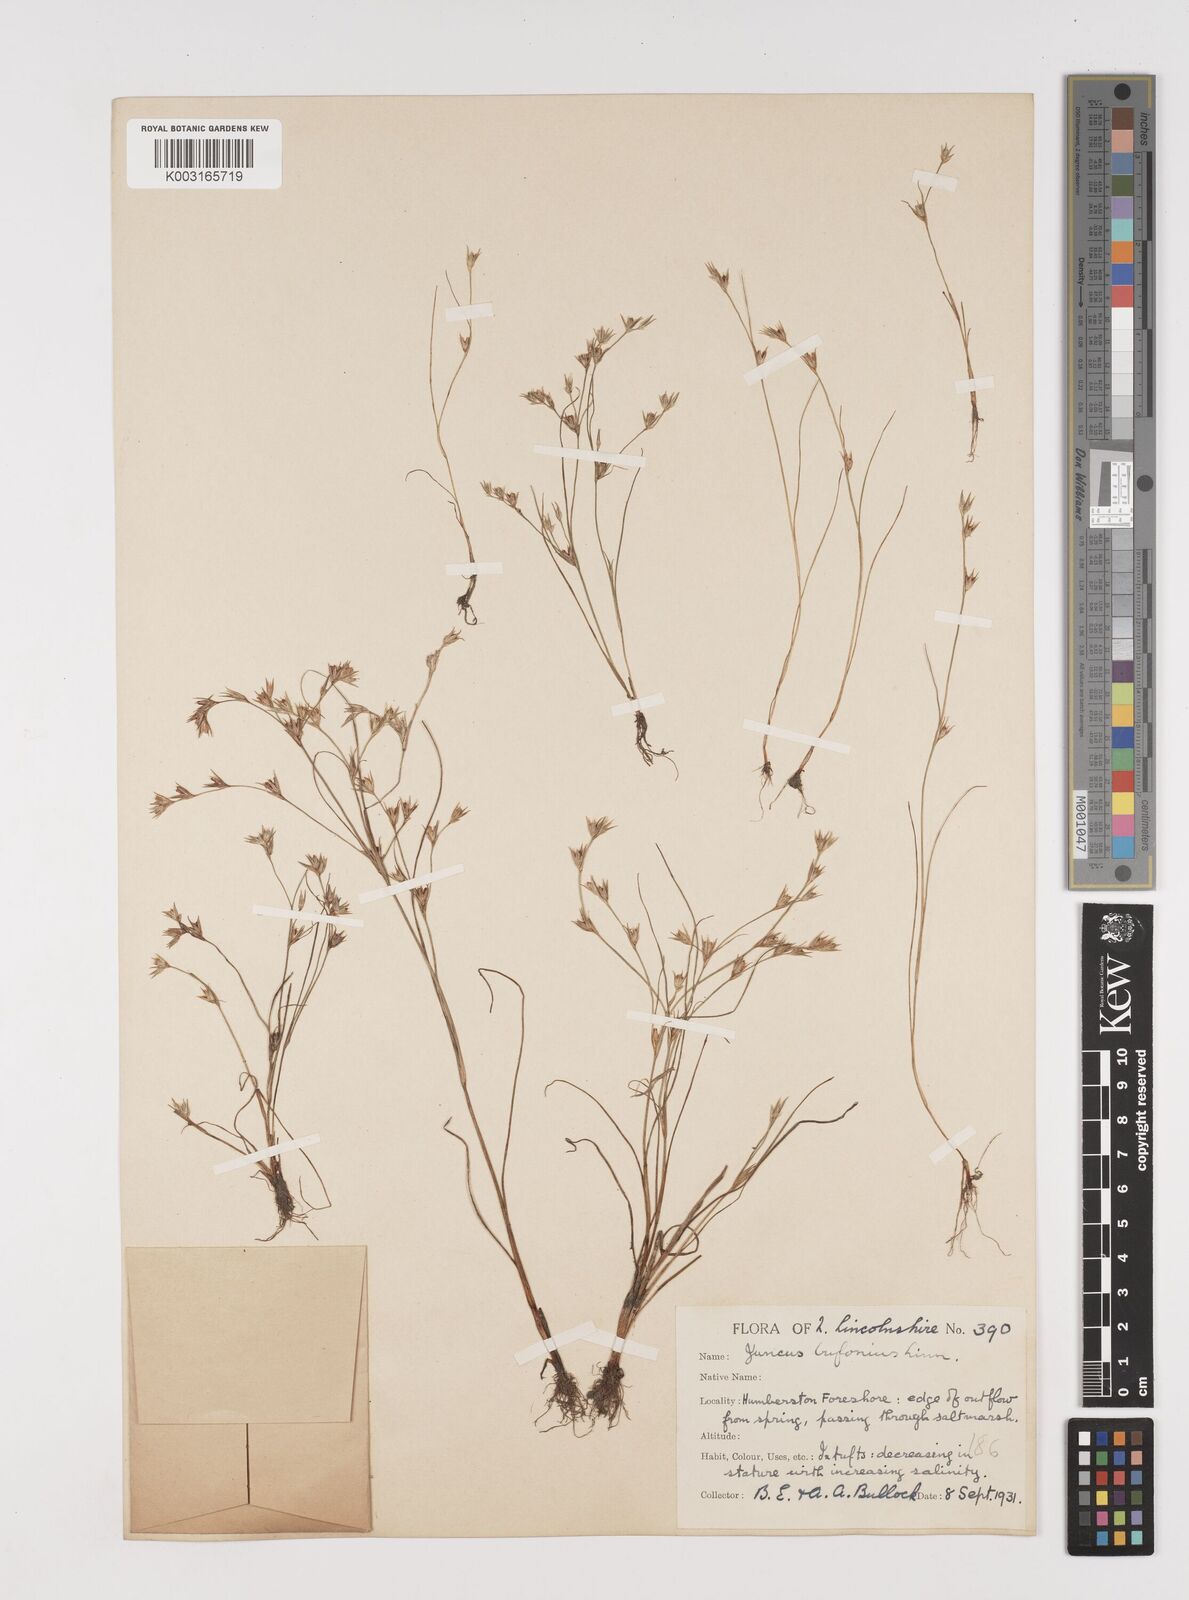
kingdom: Plantae
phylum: Tracheophyta
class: Liliopsida
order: Poales
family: Juncaceae
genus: Juncus
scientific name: Juncus bufonius
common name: Toad rush
